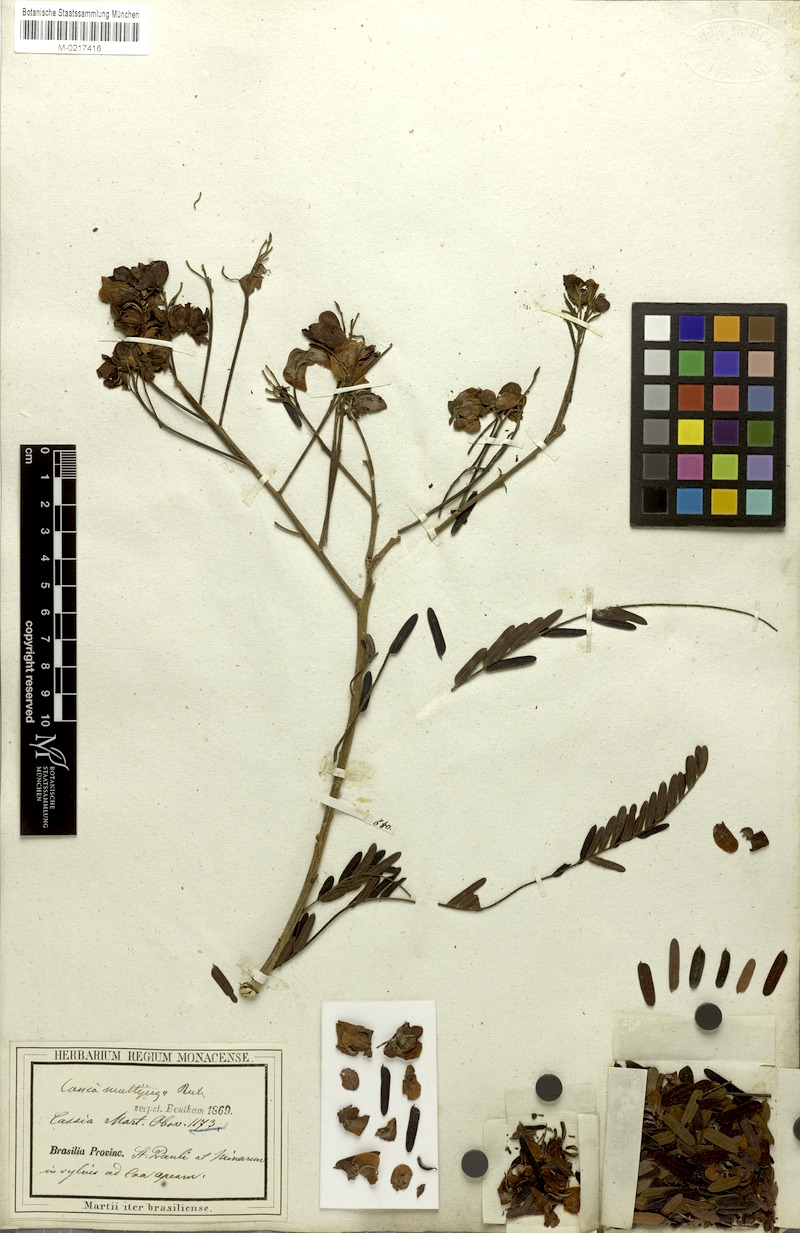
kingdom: Plantae
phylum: Tracheophyta
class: Magnoliopsida
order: Fabales
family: Fabaceae
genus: Senna
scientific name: Senna multijuga
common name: False sicklepod
